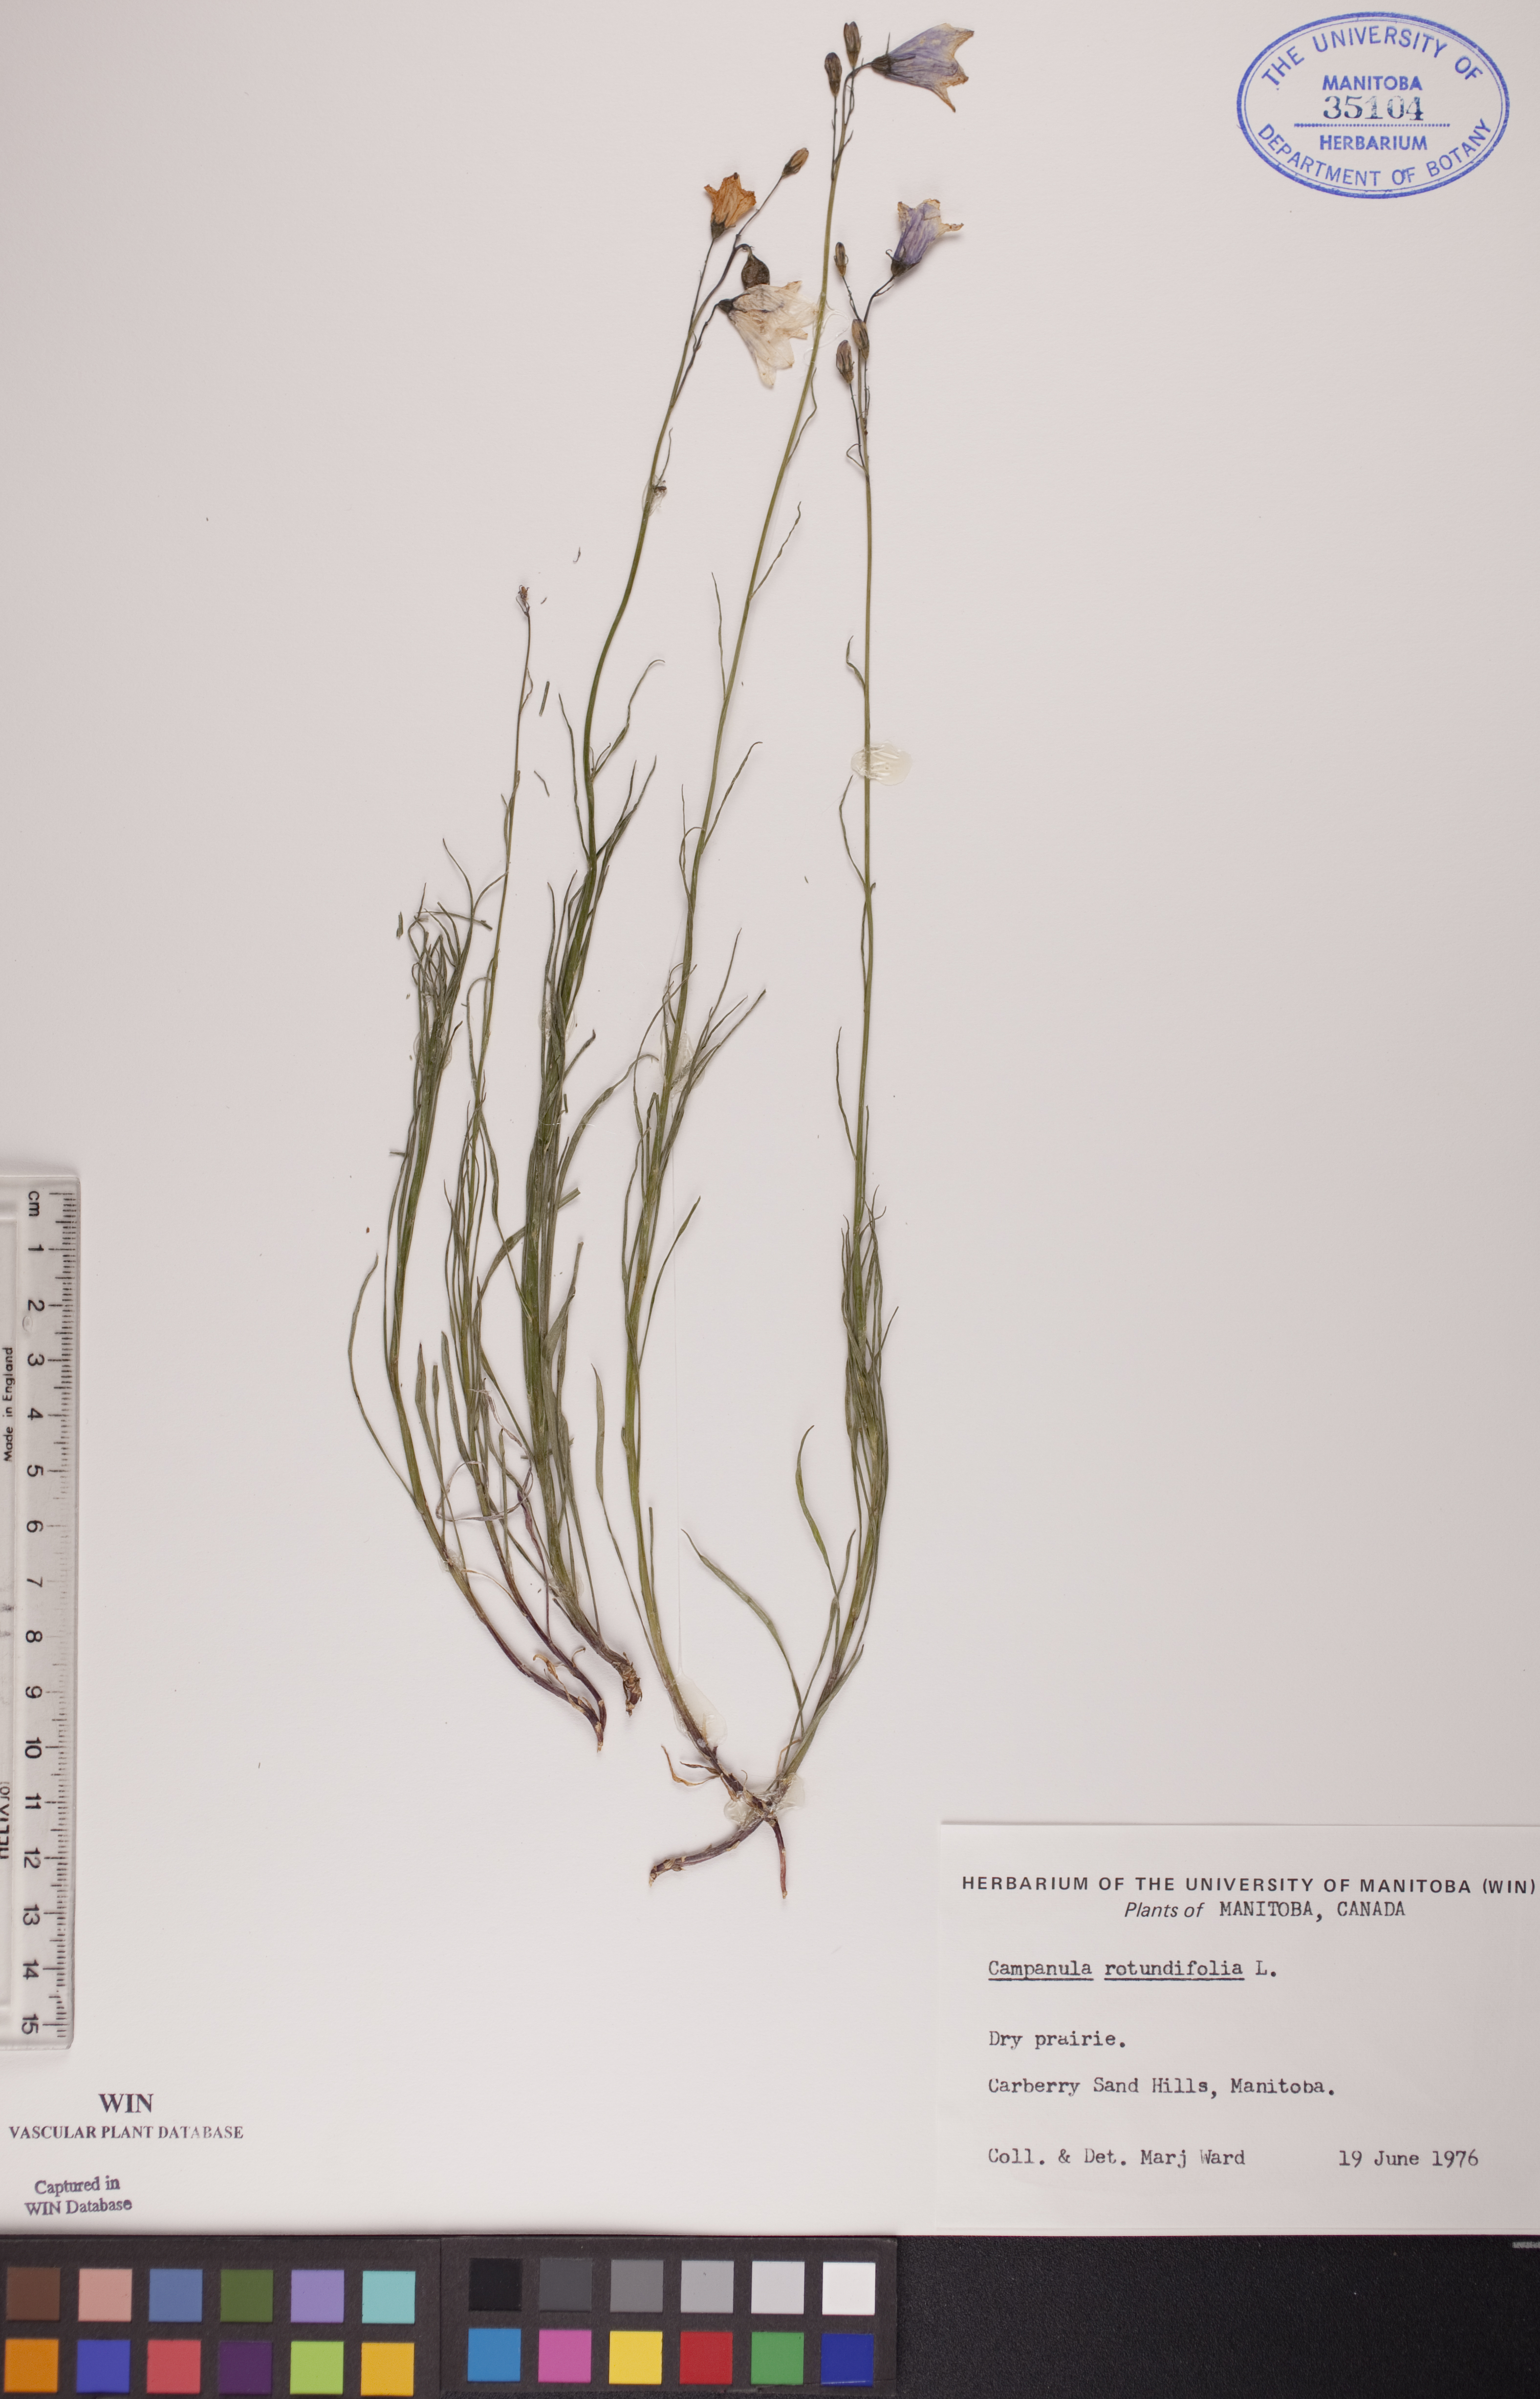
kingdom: Plantae
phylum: Tracheophyta
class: Magnoliopsida
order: Asterales
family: Campanulaceae
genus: Campanula
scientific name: Campanula rotundifolia
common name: Harebell
